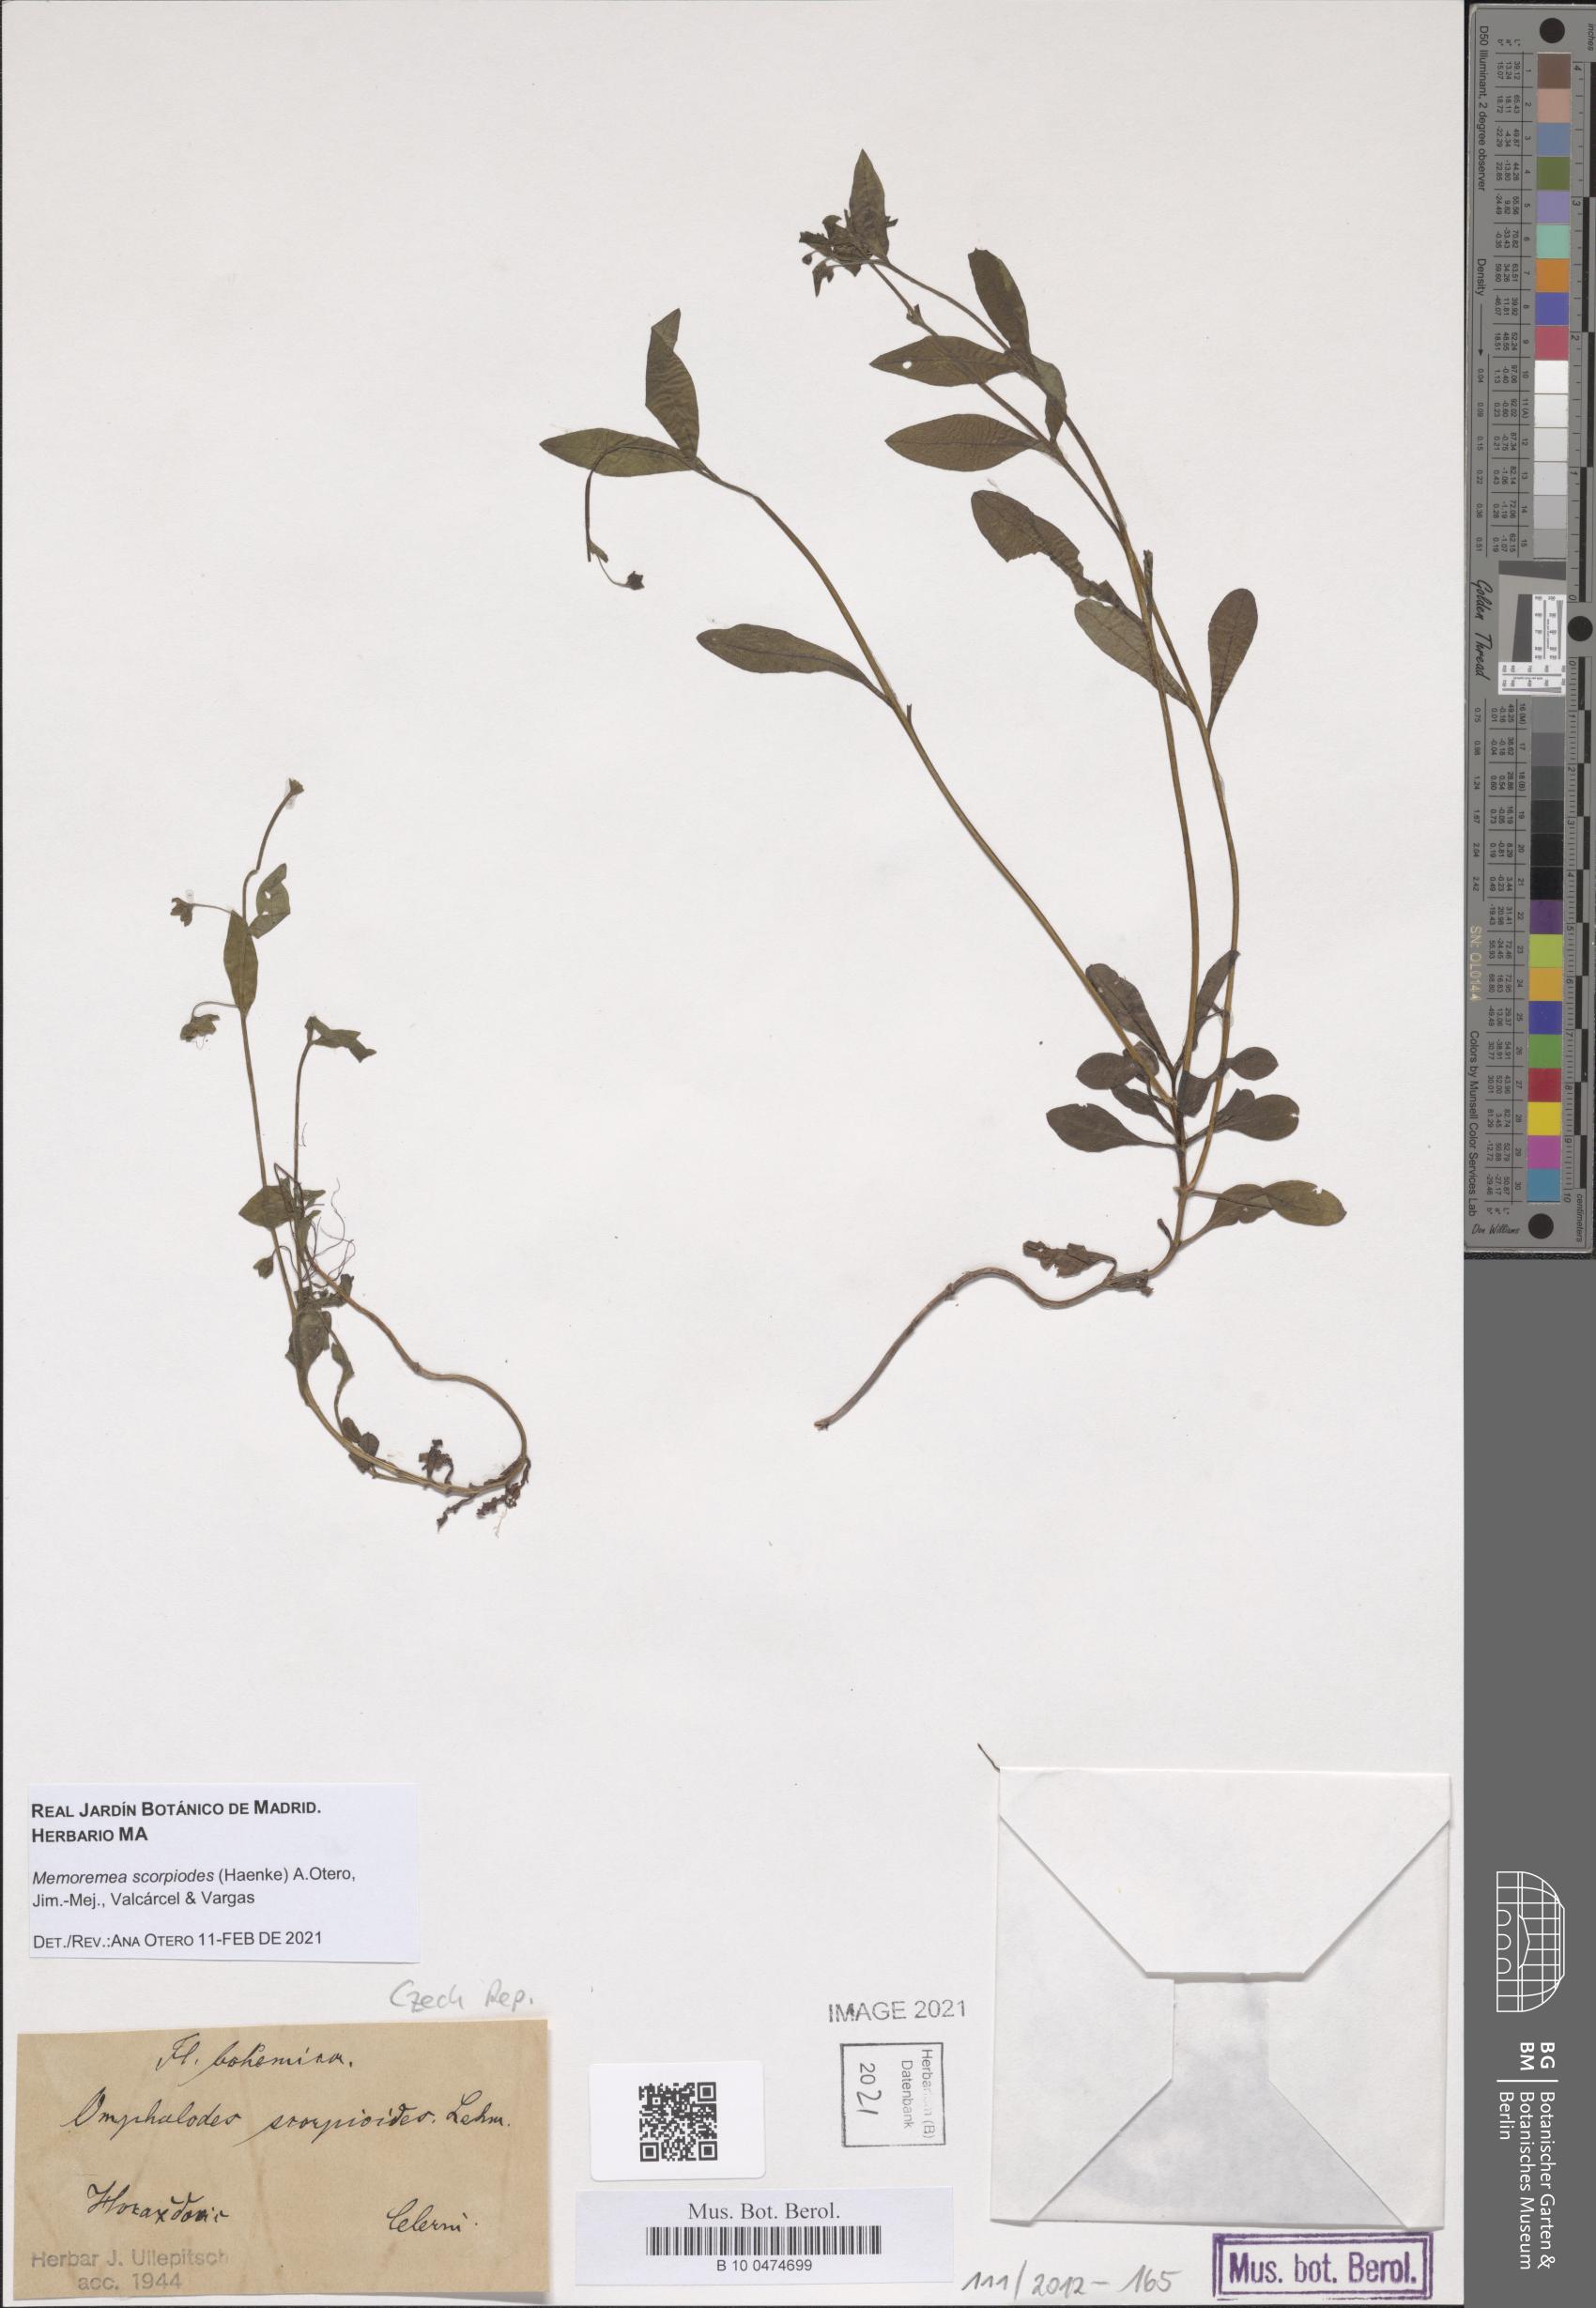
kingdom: Plantae
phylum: Tracheophyta
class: Magnoliopsida
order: Boraginales
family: Boraginaceae
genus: Memoremea
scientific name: Memoremea scorpioides
